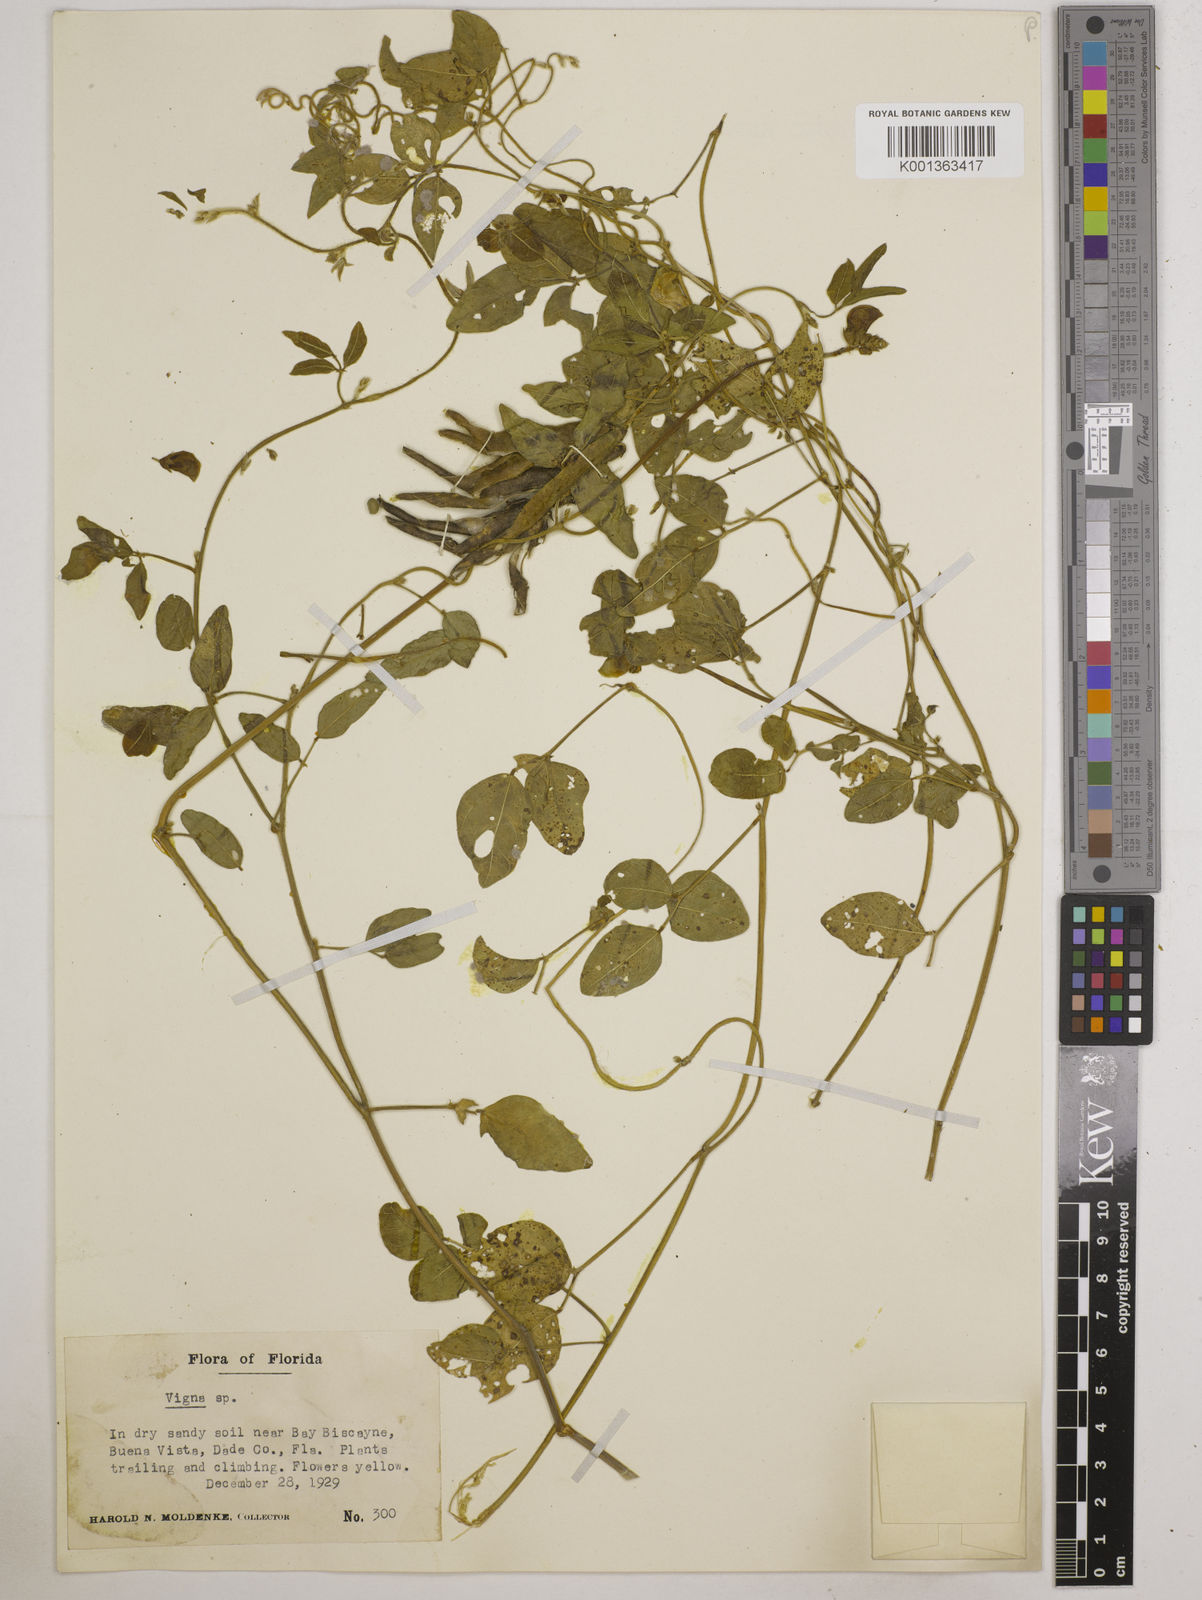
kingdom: Plantae
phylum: Tracheophyta
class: Magnoliopsida
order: Fabales
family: Fabaceae
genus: Vigna
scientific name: Vigna
